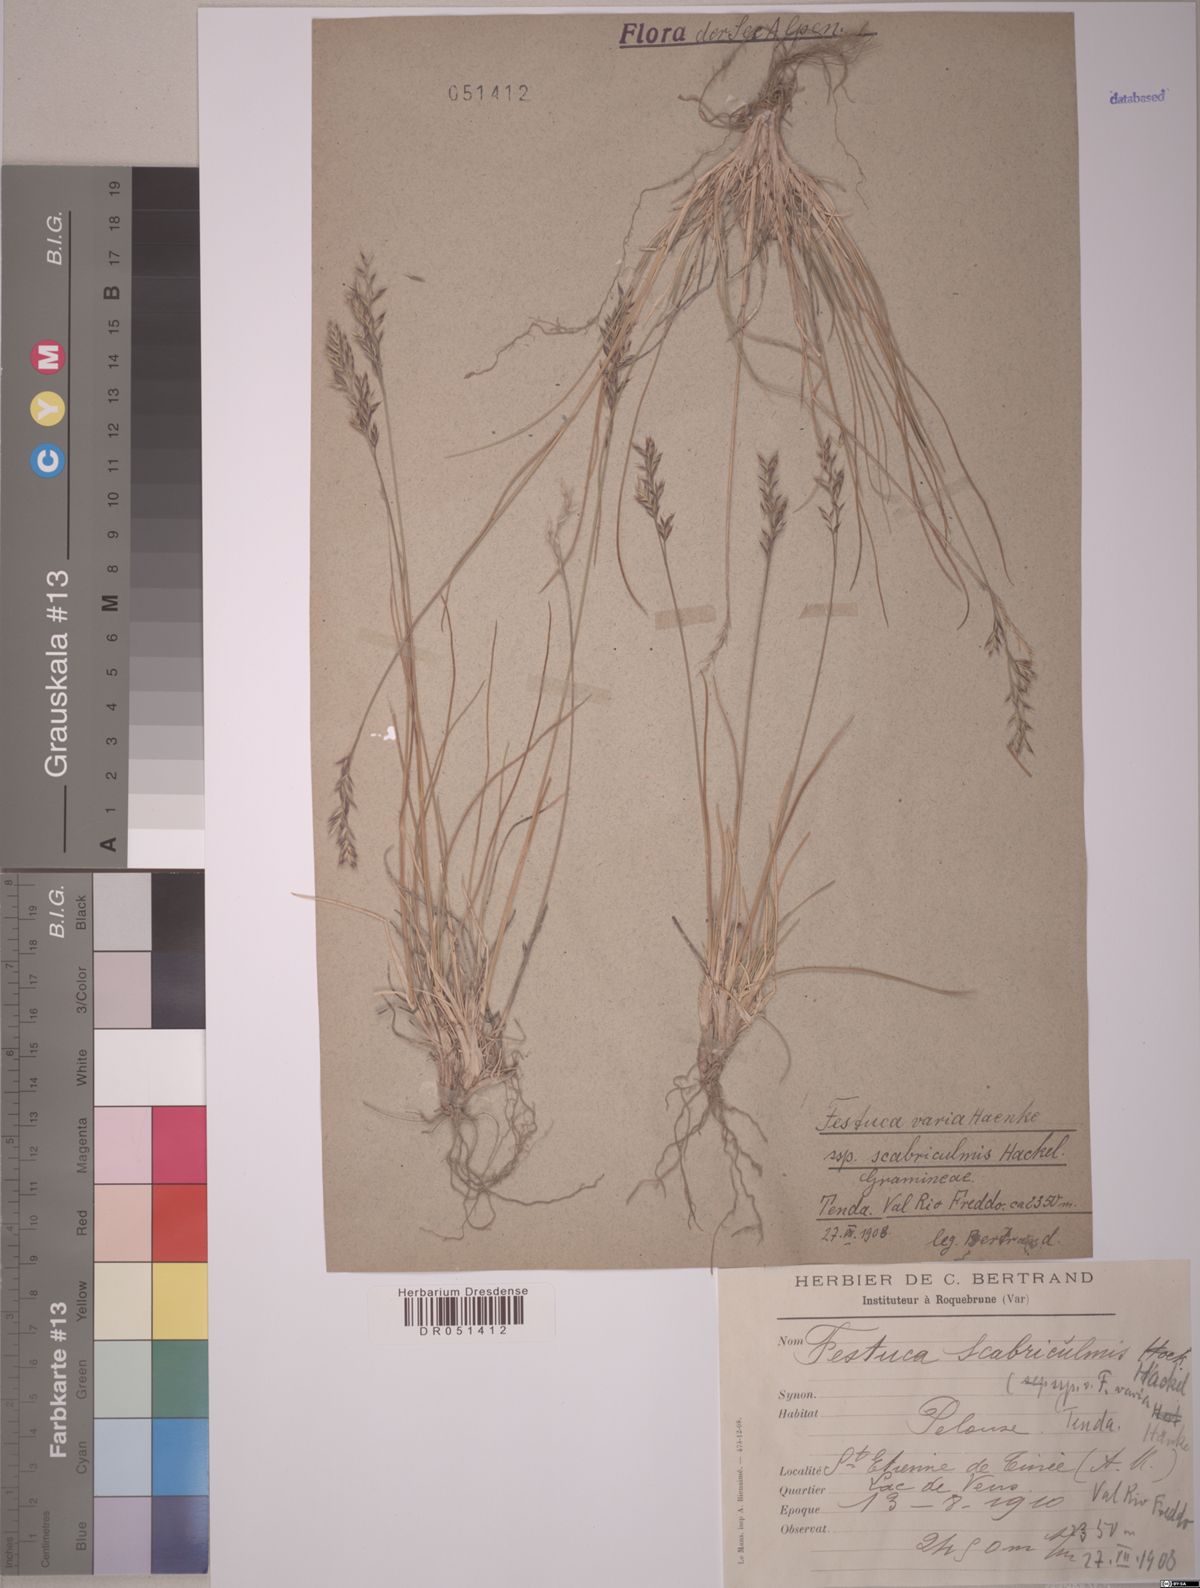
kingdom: Plantae
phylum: Tracheophyta
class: Liliopsida
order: Poales
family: Poaceae
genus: Festuca
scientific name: Festuca scabriculmis
